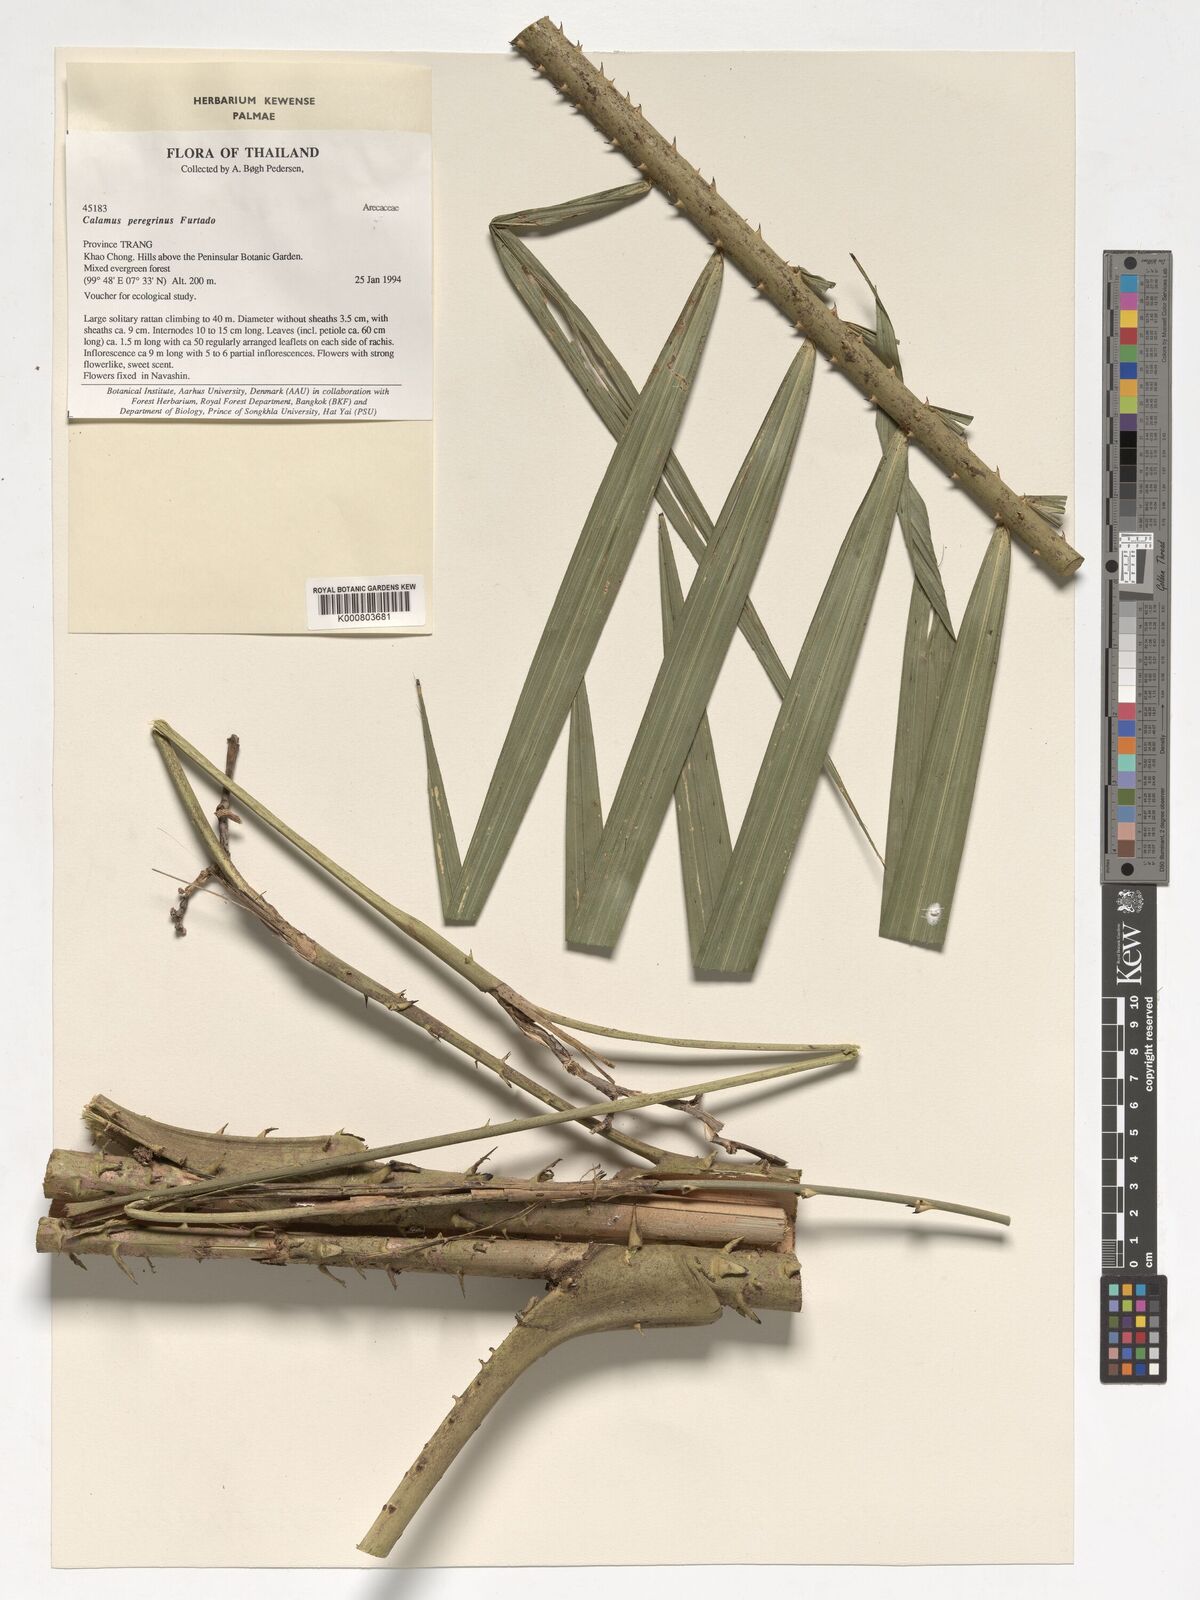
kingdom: Plantae
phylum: Tracheophyta
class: Liliopsida
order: Arecales
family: Arecaceae
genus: Calamus
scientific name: Calamus peregrinus
